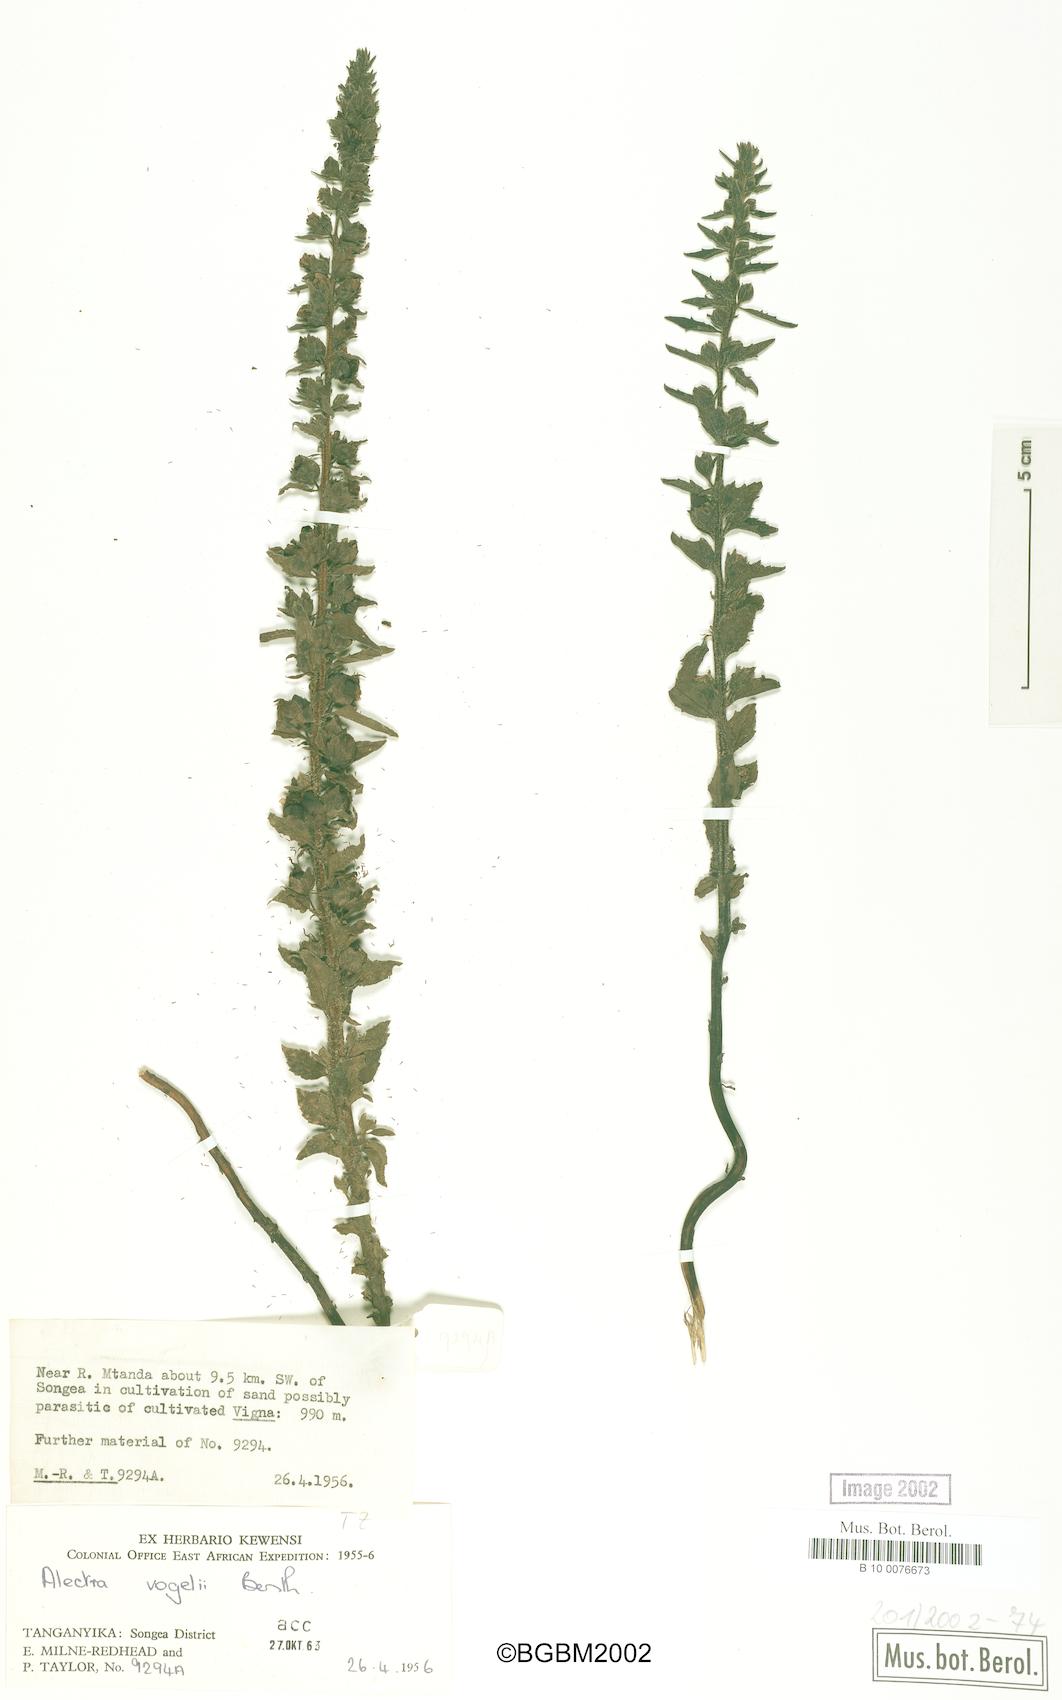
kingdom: Plantae
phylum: Tracheophyta
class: Magnoliopsida
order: Lamiales
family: Orobanchaceae
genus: Alectra
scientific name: Alectra vogelii
